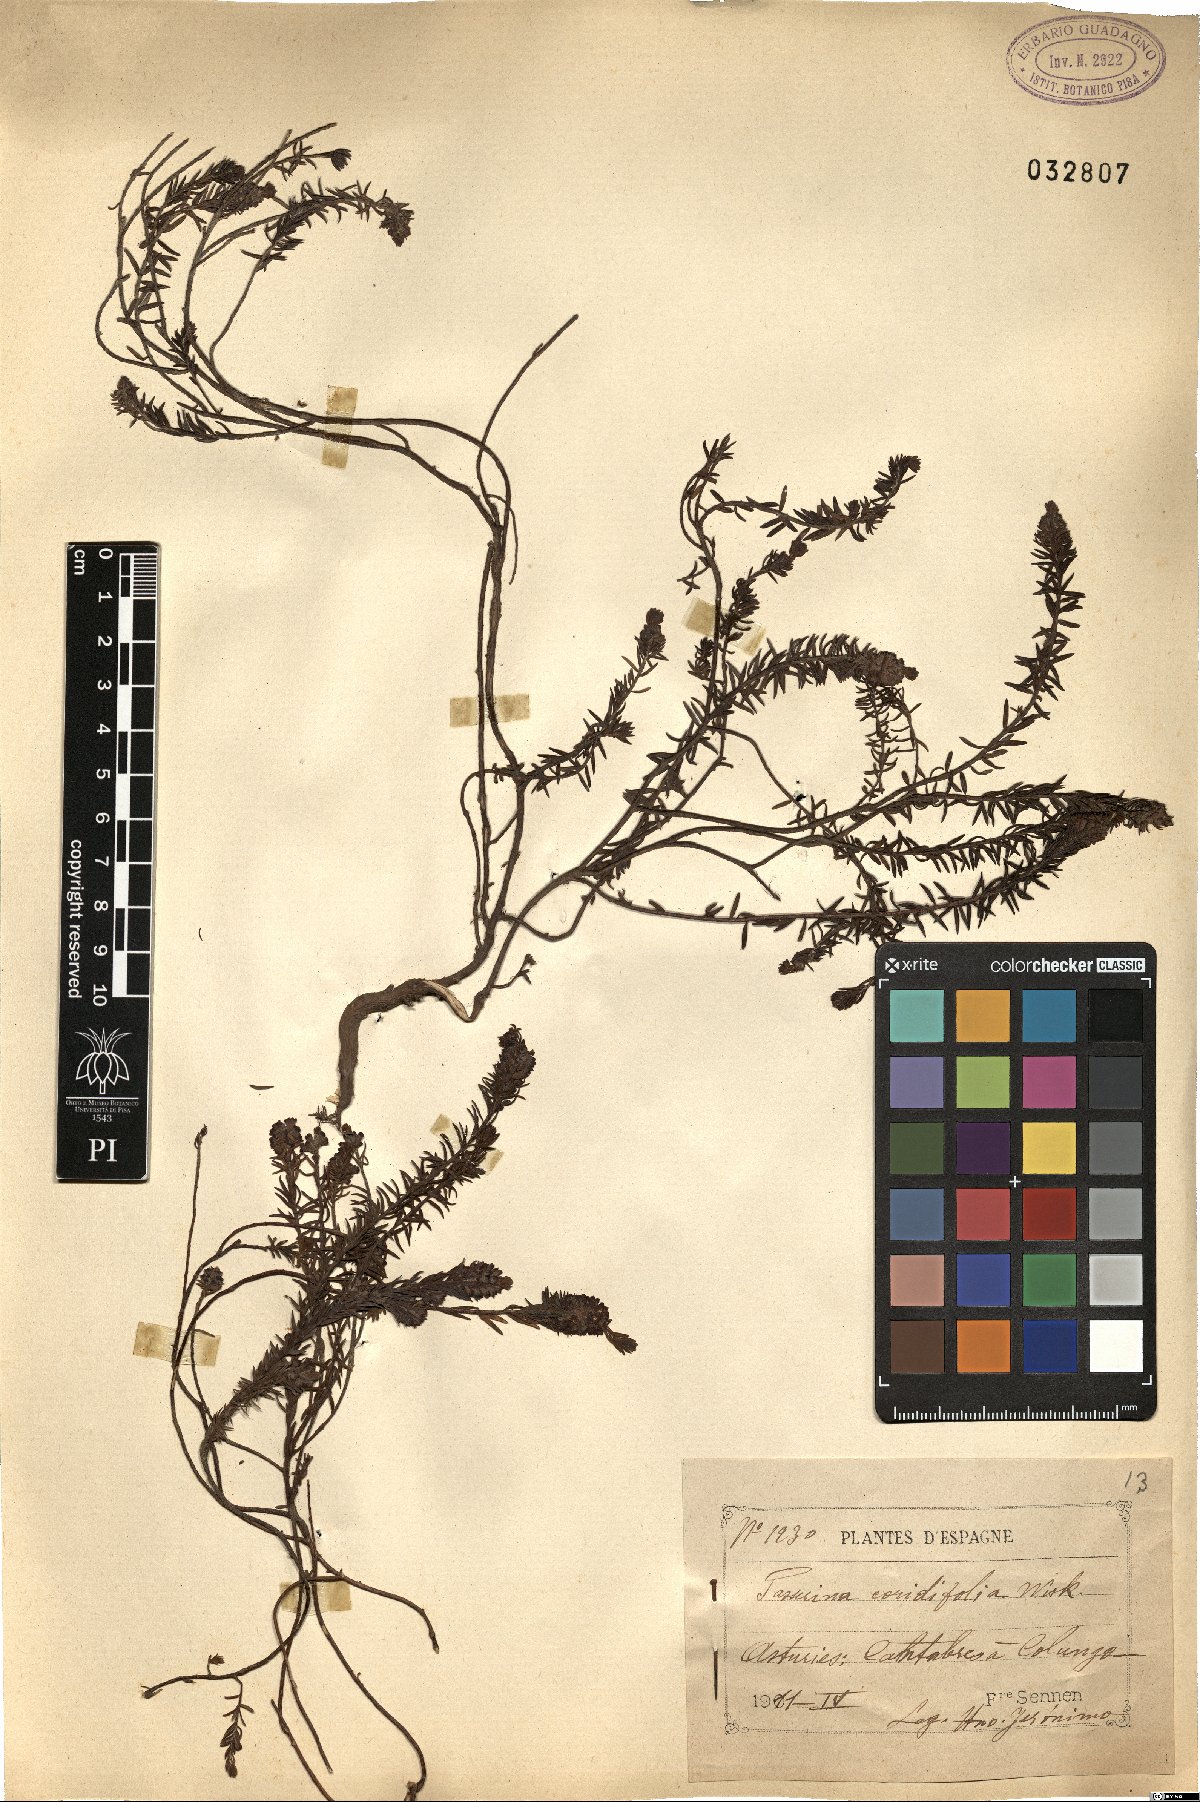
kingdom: Plantae
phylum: Tracheophyta
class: Magnoliopsida
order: Malvales
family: Thymelaeaceae
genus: Thymelaea
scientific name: Thymelaea coridifolia
